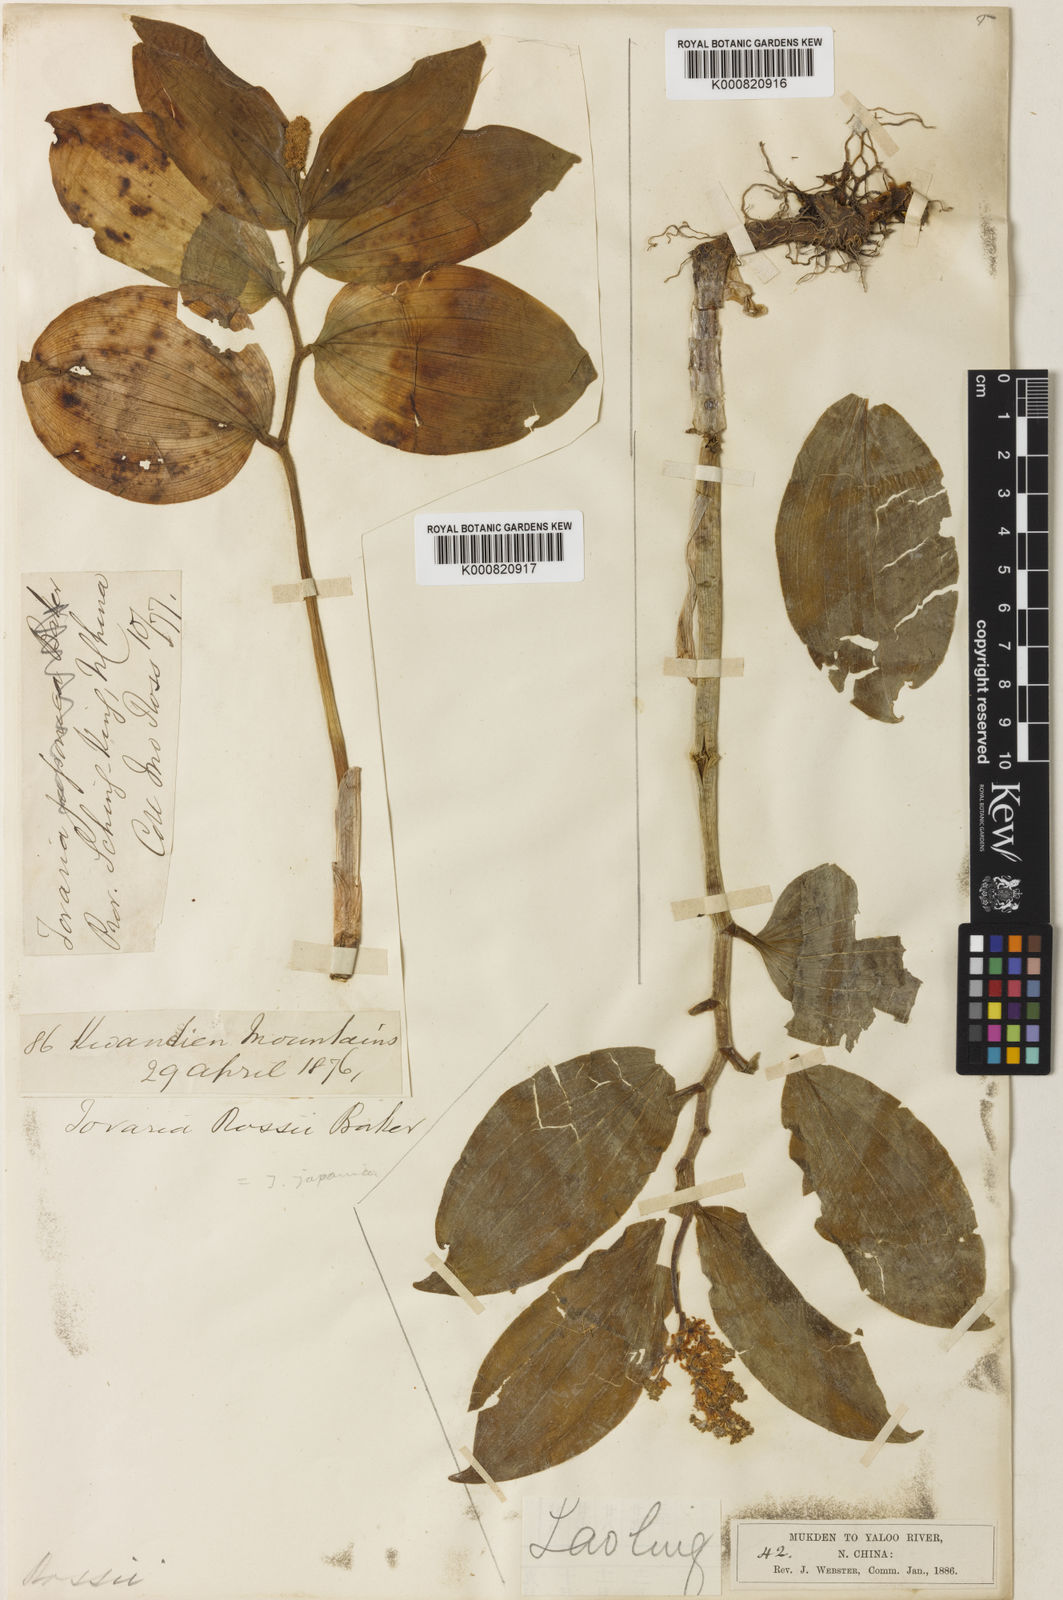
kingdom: Plantae
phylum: Tracheophyta
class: Liliopsida
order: Asparagales
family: Asparagaceae
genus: Maianthemum
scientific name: Maianthemum japonicum
